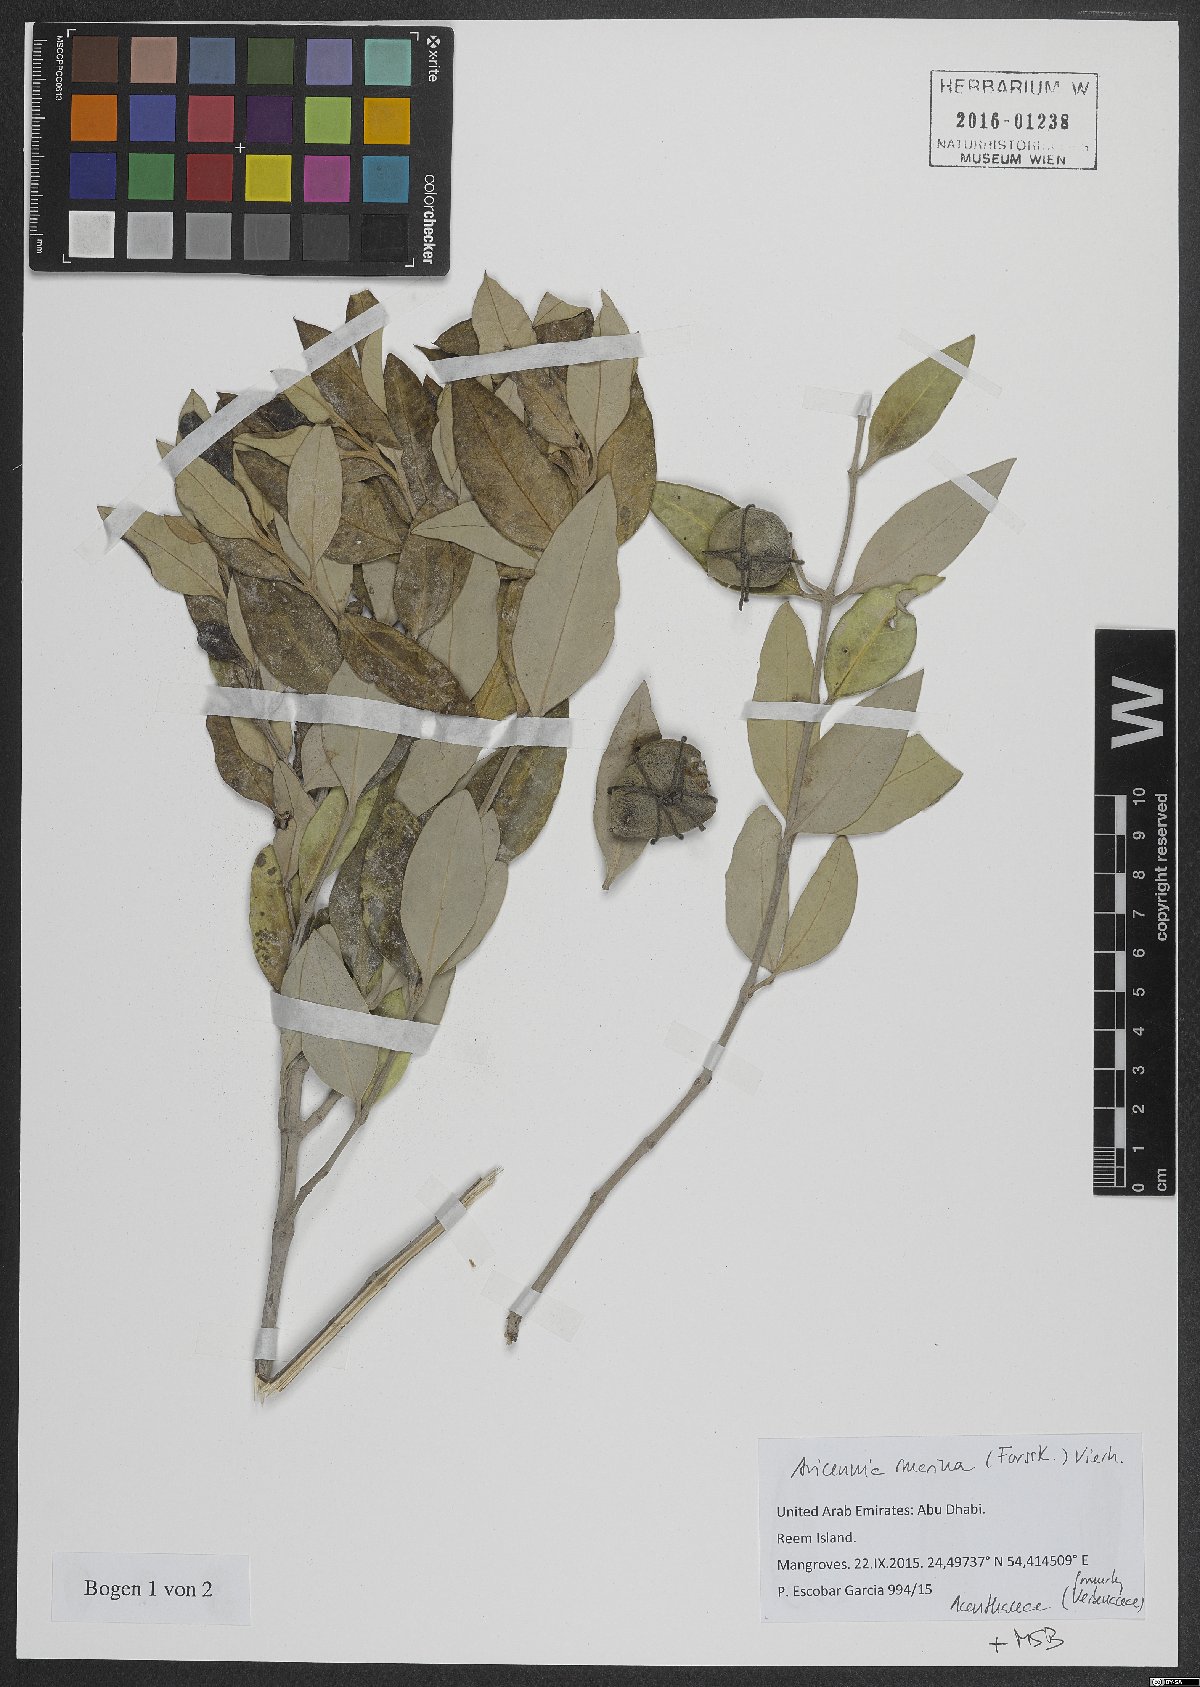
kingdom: Plantae
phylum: Tracheophyta
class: Magnoliopsida
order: Lamiales
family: Acanthaceae
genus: Avicennia
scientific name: Avicennia marina
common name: Gray mangrove
